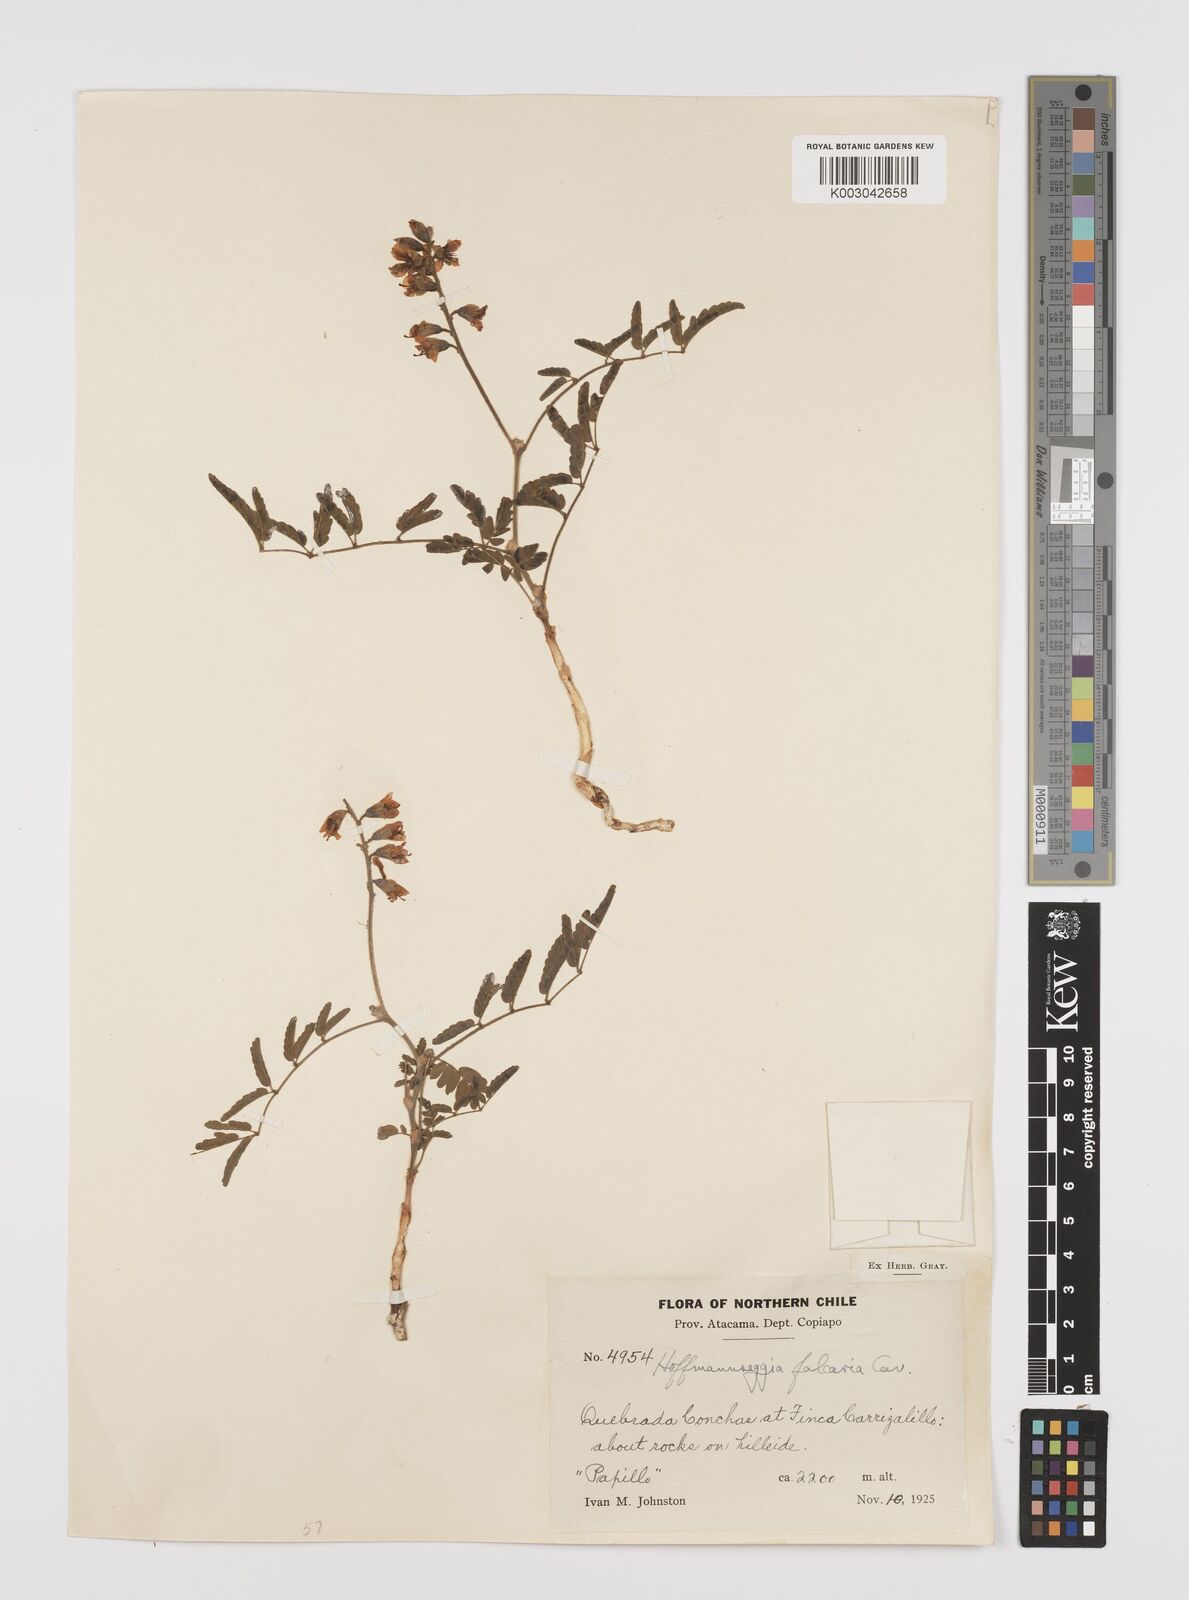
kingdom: Plantae
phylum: Tracheophyta
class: Magnoliopsida
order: Fabales
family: Fabaceae
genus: Hoffmannseggia
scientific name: Hoffmannseggia glauca
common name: Pignut
